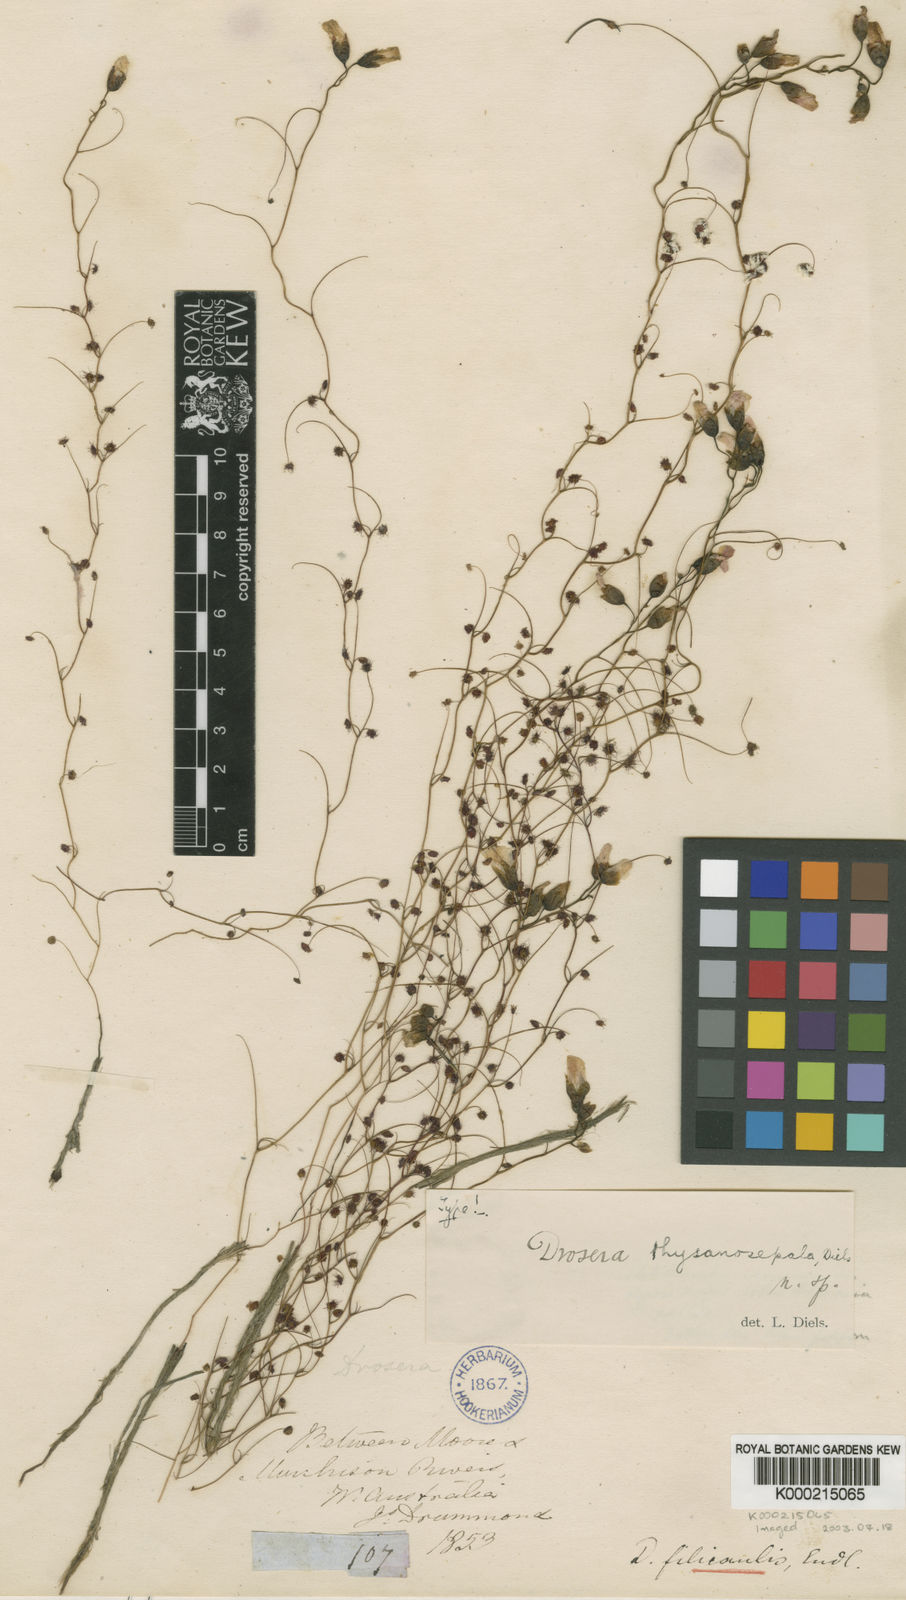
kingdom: Plantae
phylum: Tracheophyta
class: Magnoliopsida
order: Caryophyllales
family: Droseraceae
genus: Drosera
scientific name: Drosera menziesii
